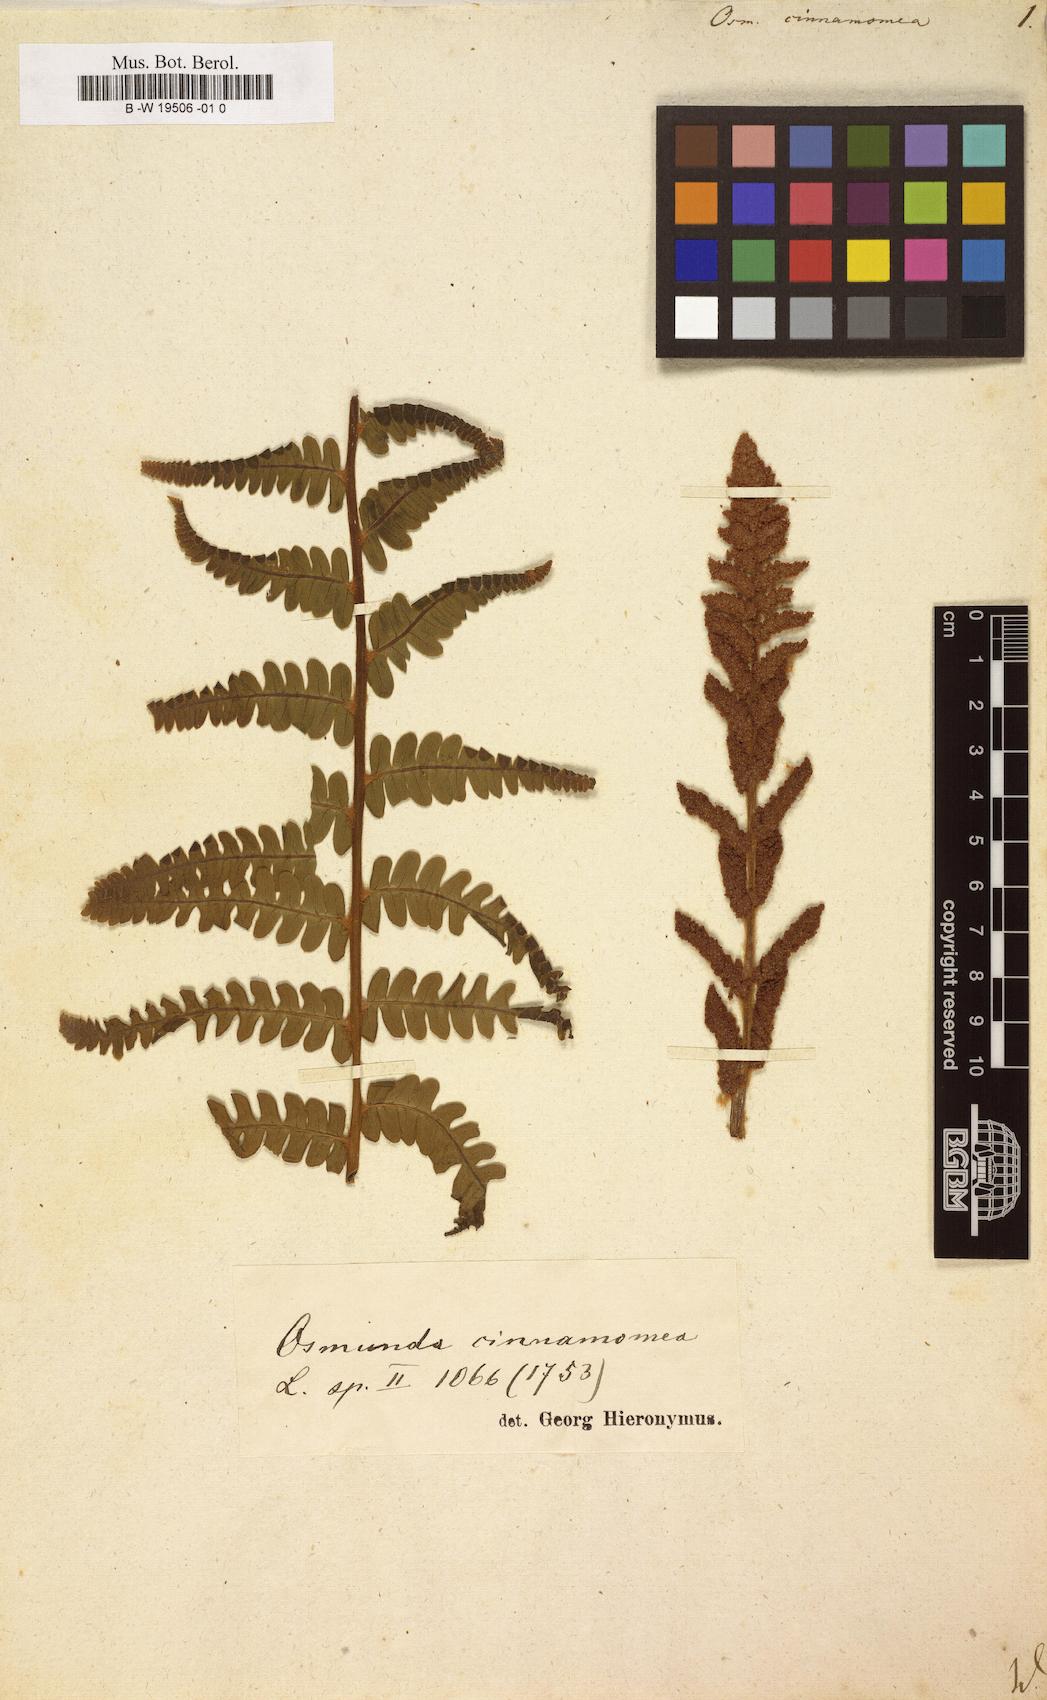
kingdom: Plantae
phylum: Tracheophyta
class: Polypodiopsida
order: Osmundales
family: Osmundaceae
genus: Osmundastrum
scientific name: Osmundastrum cinnamomeum
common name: Cinnamon fern
